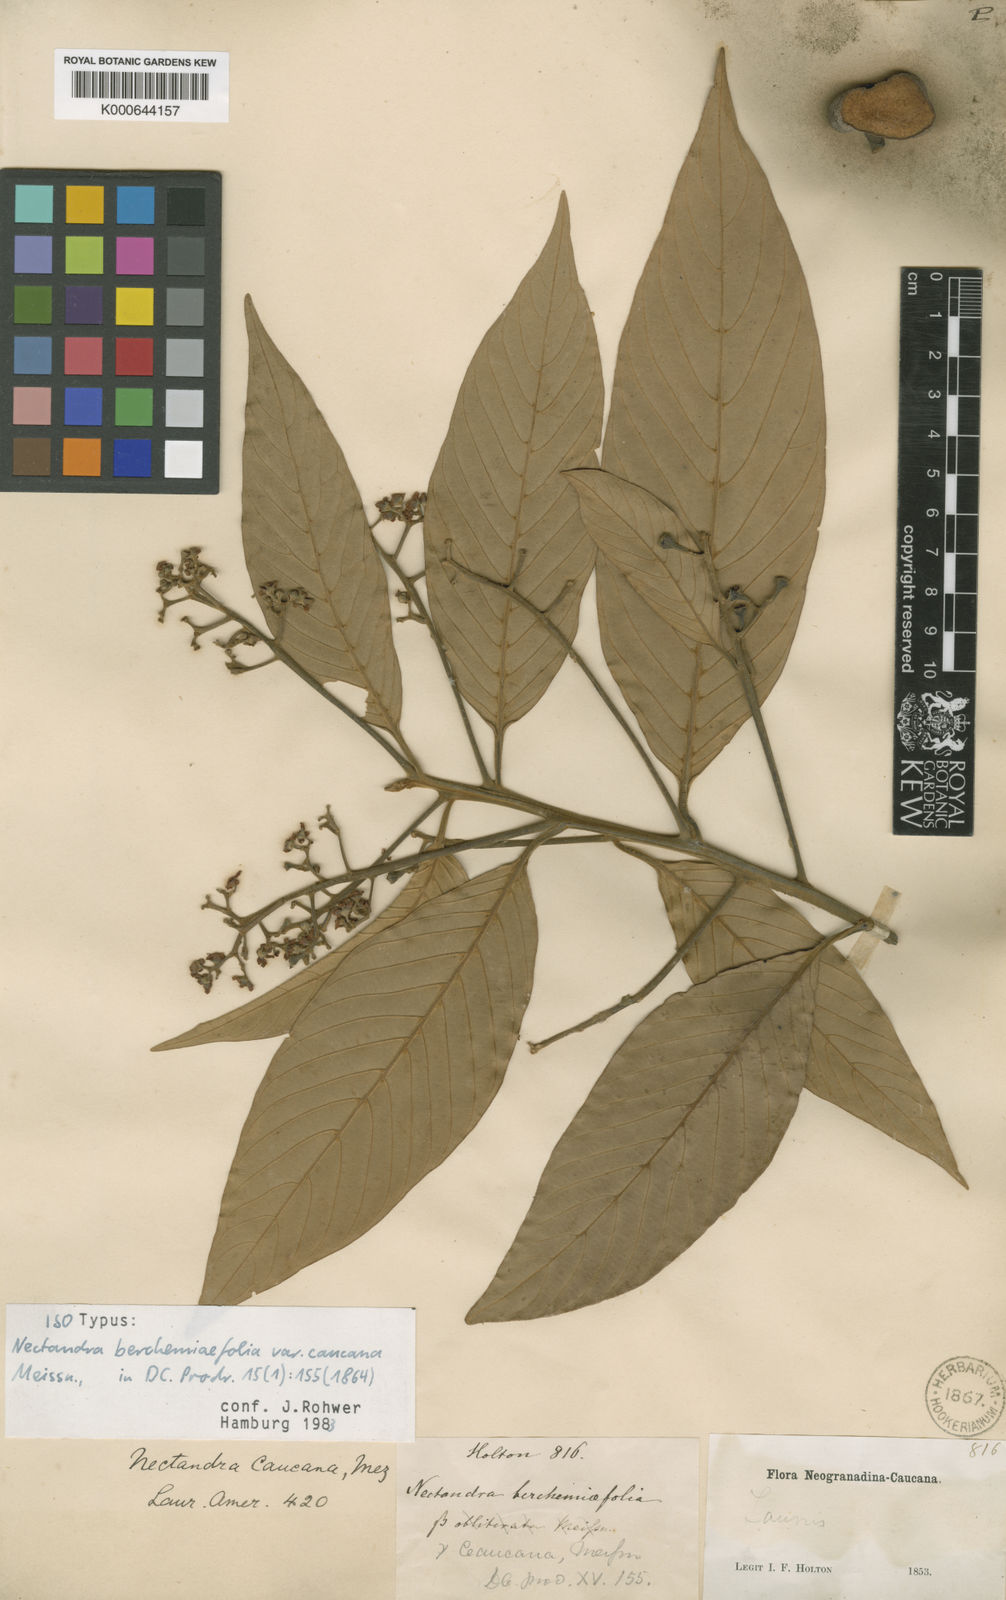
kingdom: Plantae
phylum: Tracheophyta
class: Magnoliopsida
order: Laurales
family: Lauraceae
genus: Nectandra
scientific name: Nectandra lineata
